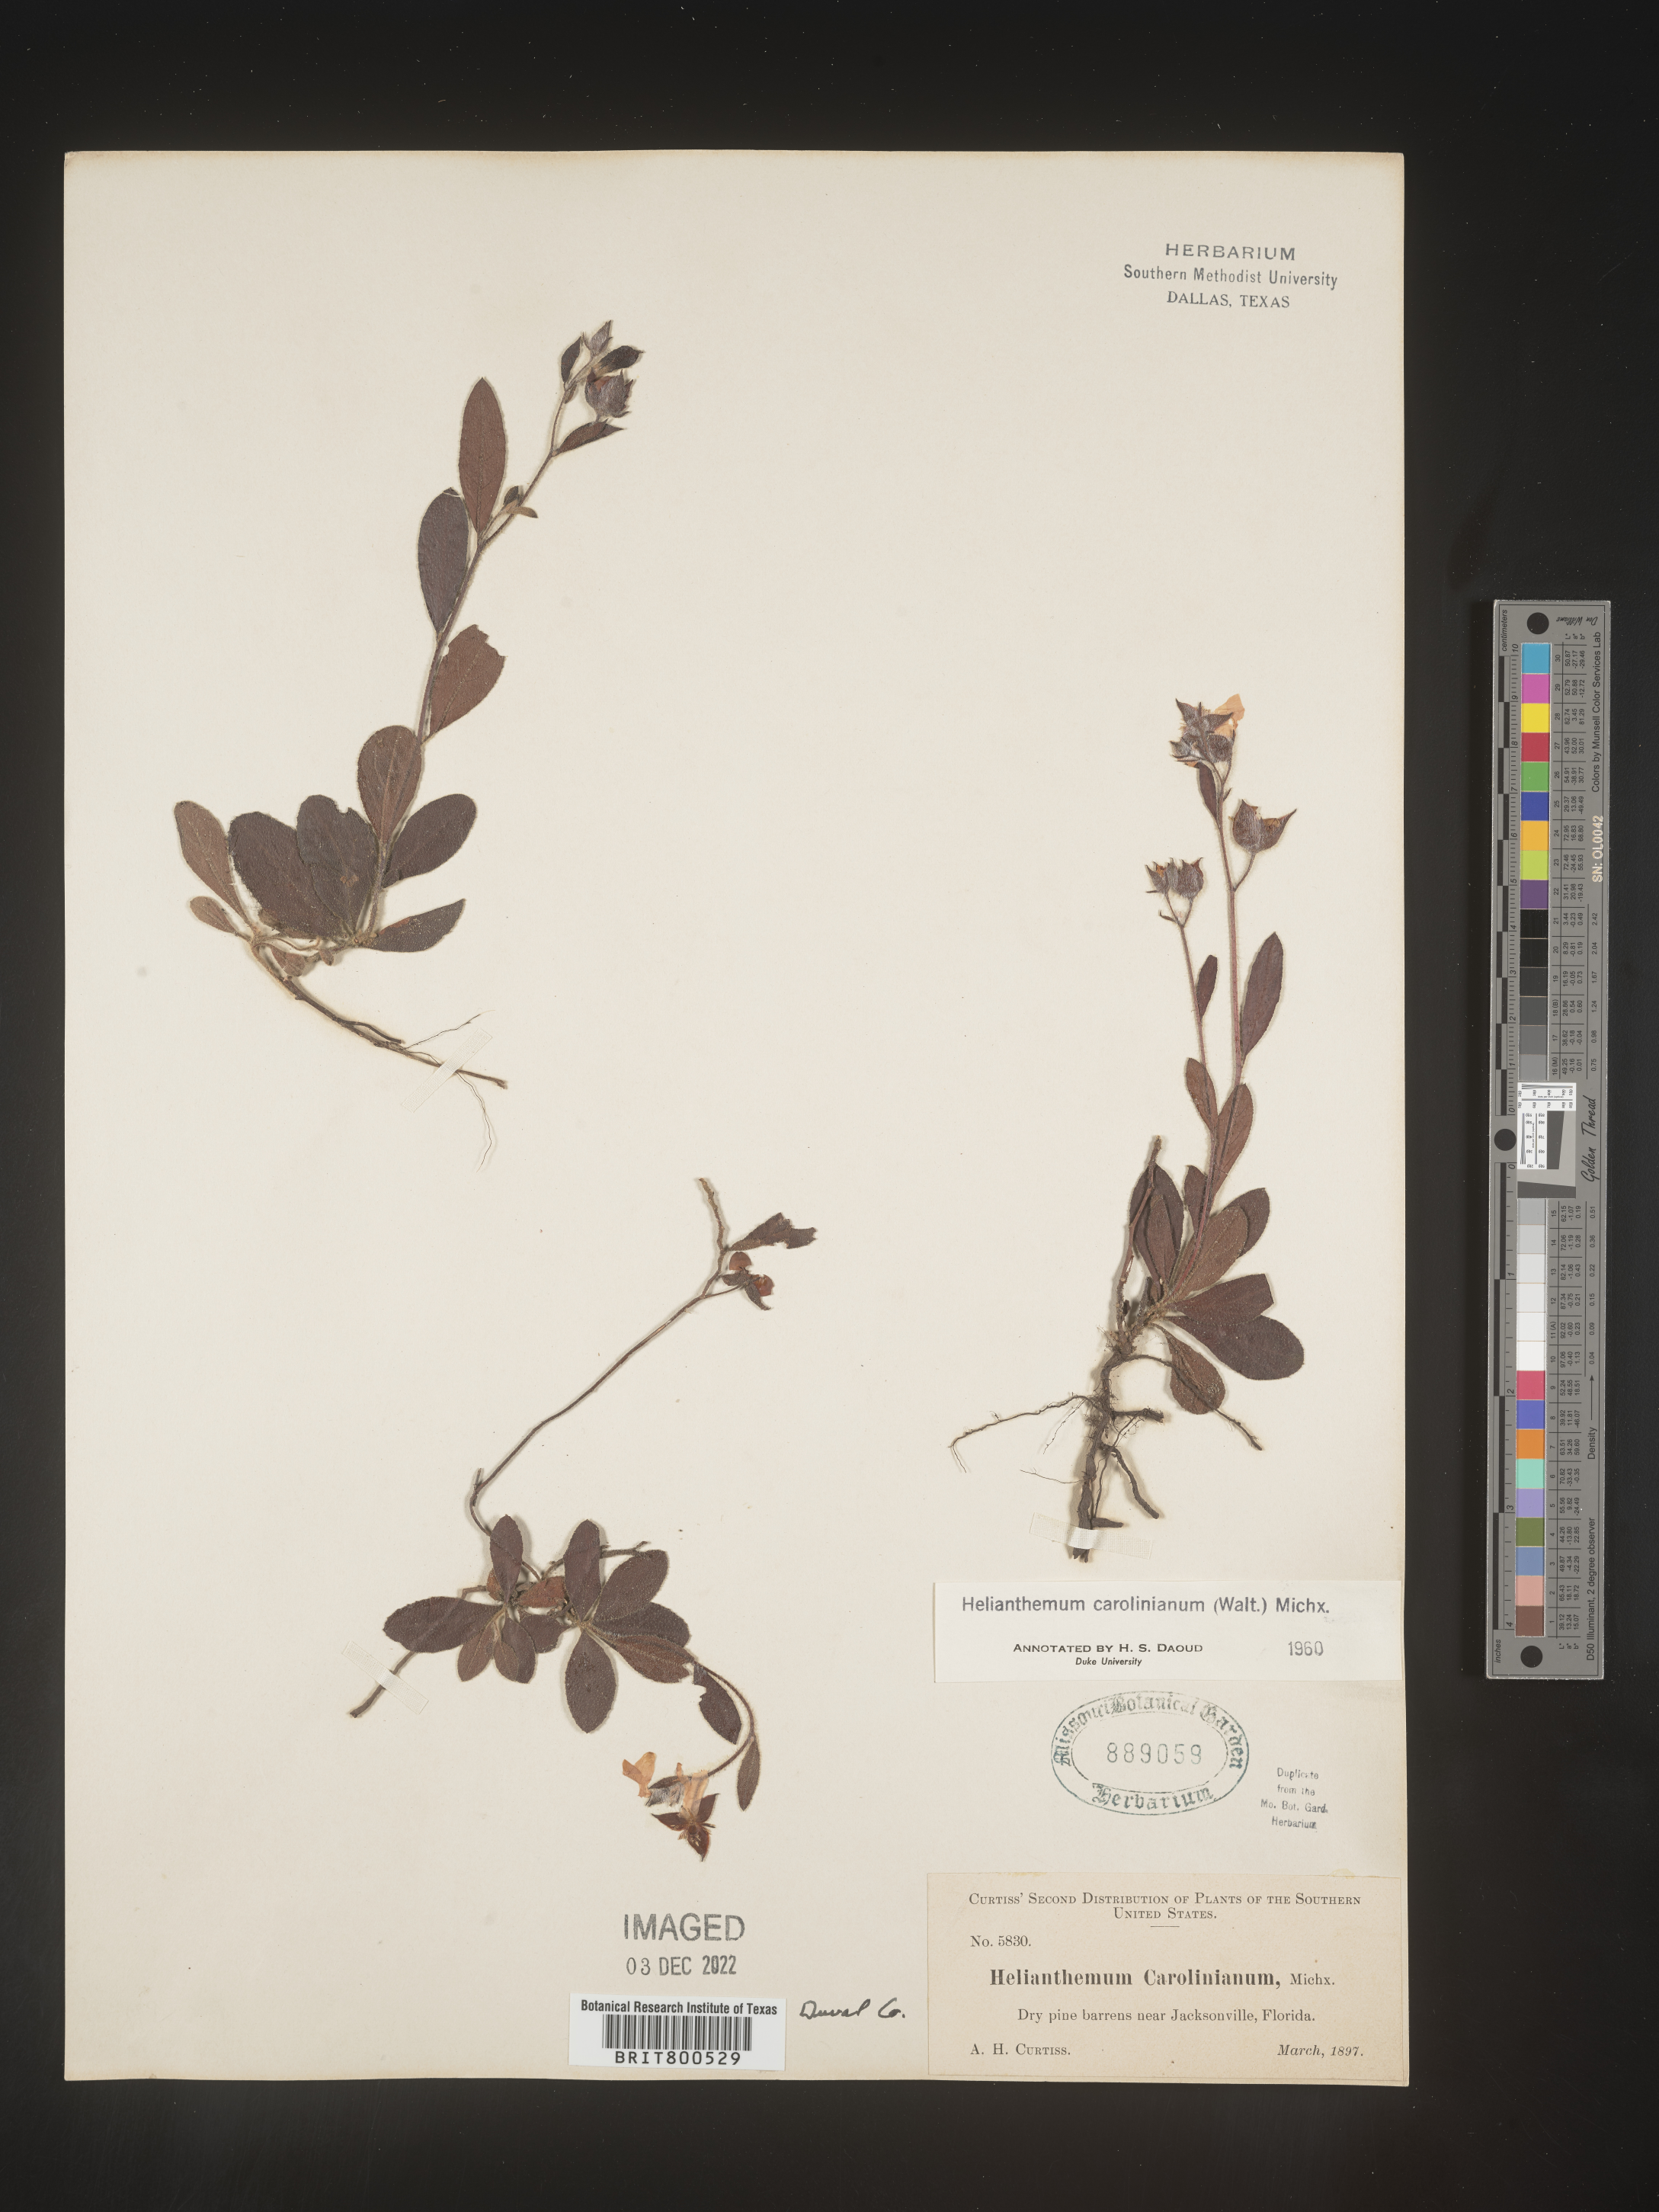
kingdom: Plantae
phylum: Tracheophyta
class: Magnoliopsida
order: Malvales
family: Cistaceae
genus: Crocanthemum
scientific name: Crocanthemum carolinianum
